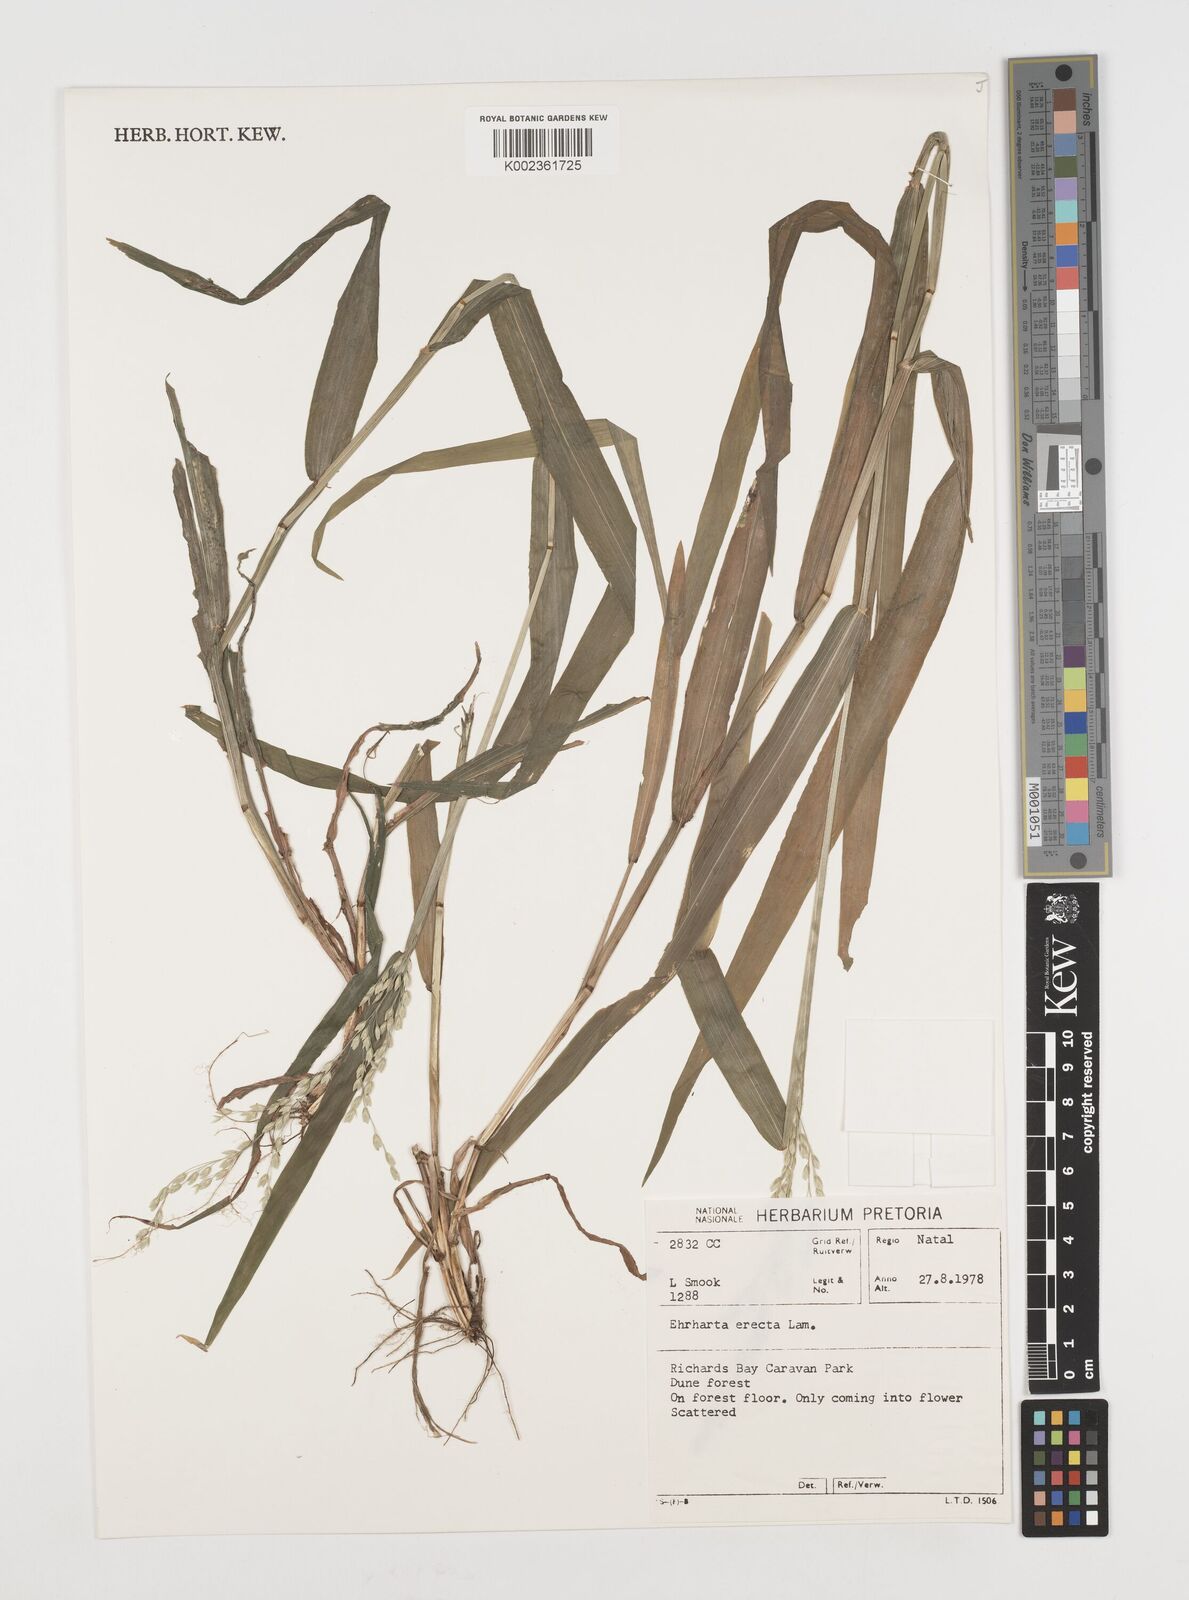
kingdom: Plantae
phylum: Tracheophyta
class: Liliopsida
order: Poales
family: Poaceae
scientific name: Poaceae
